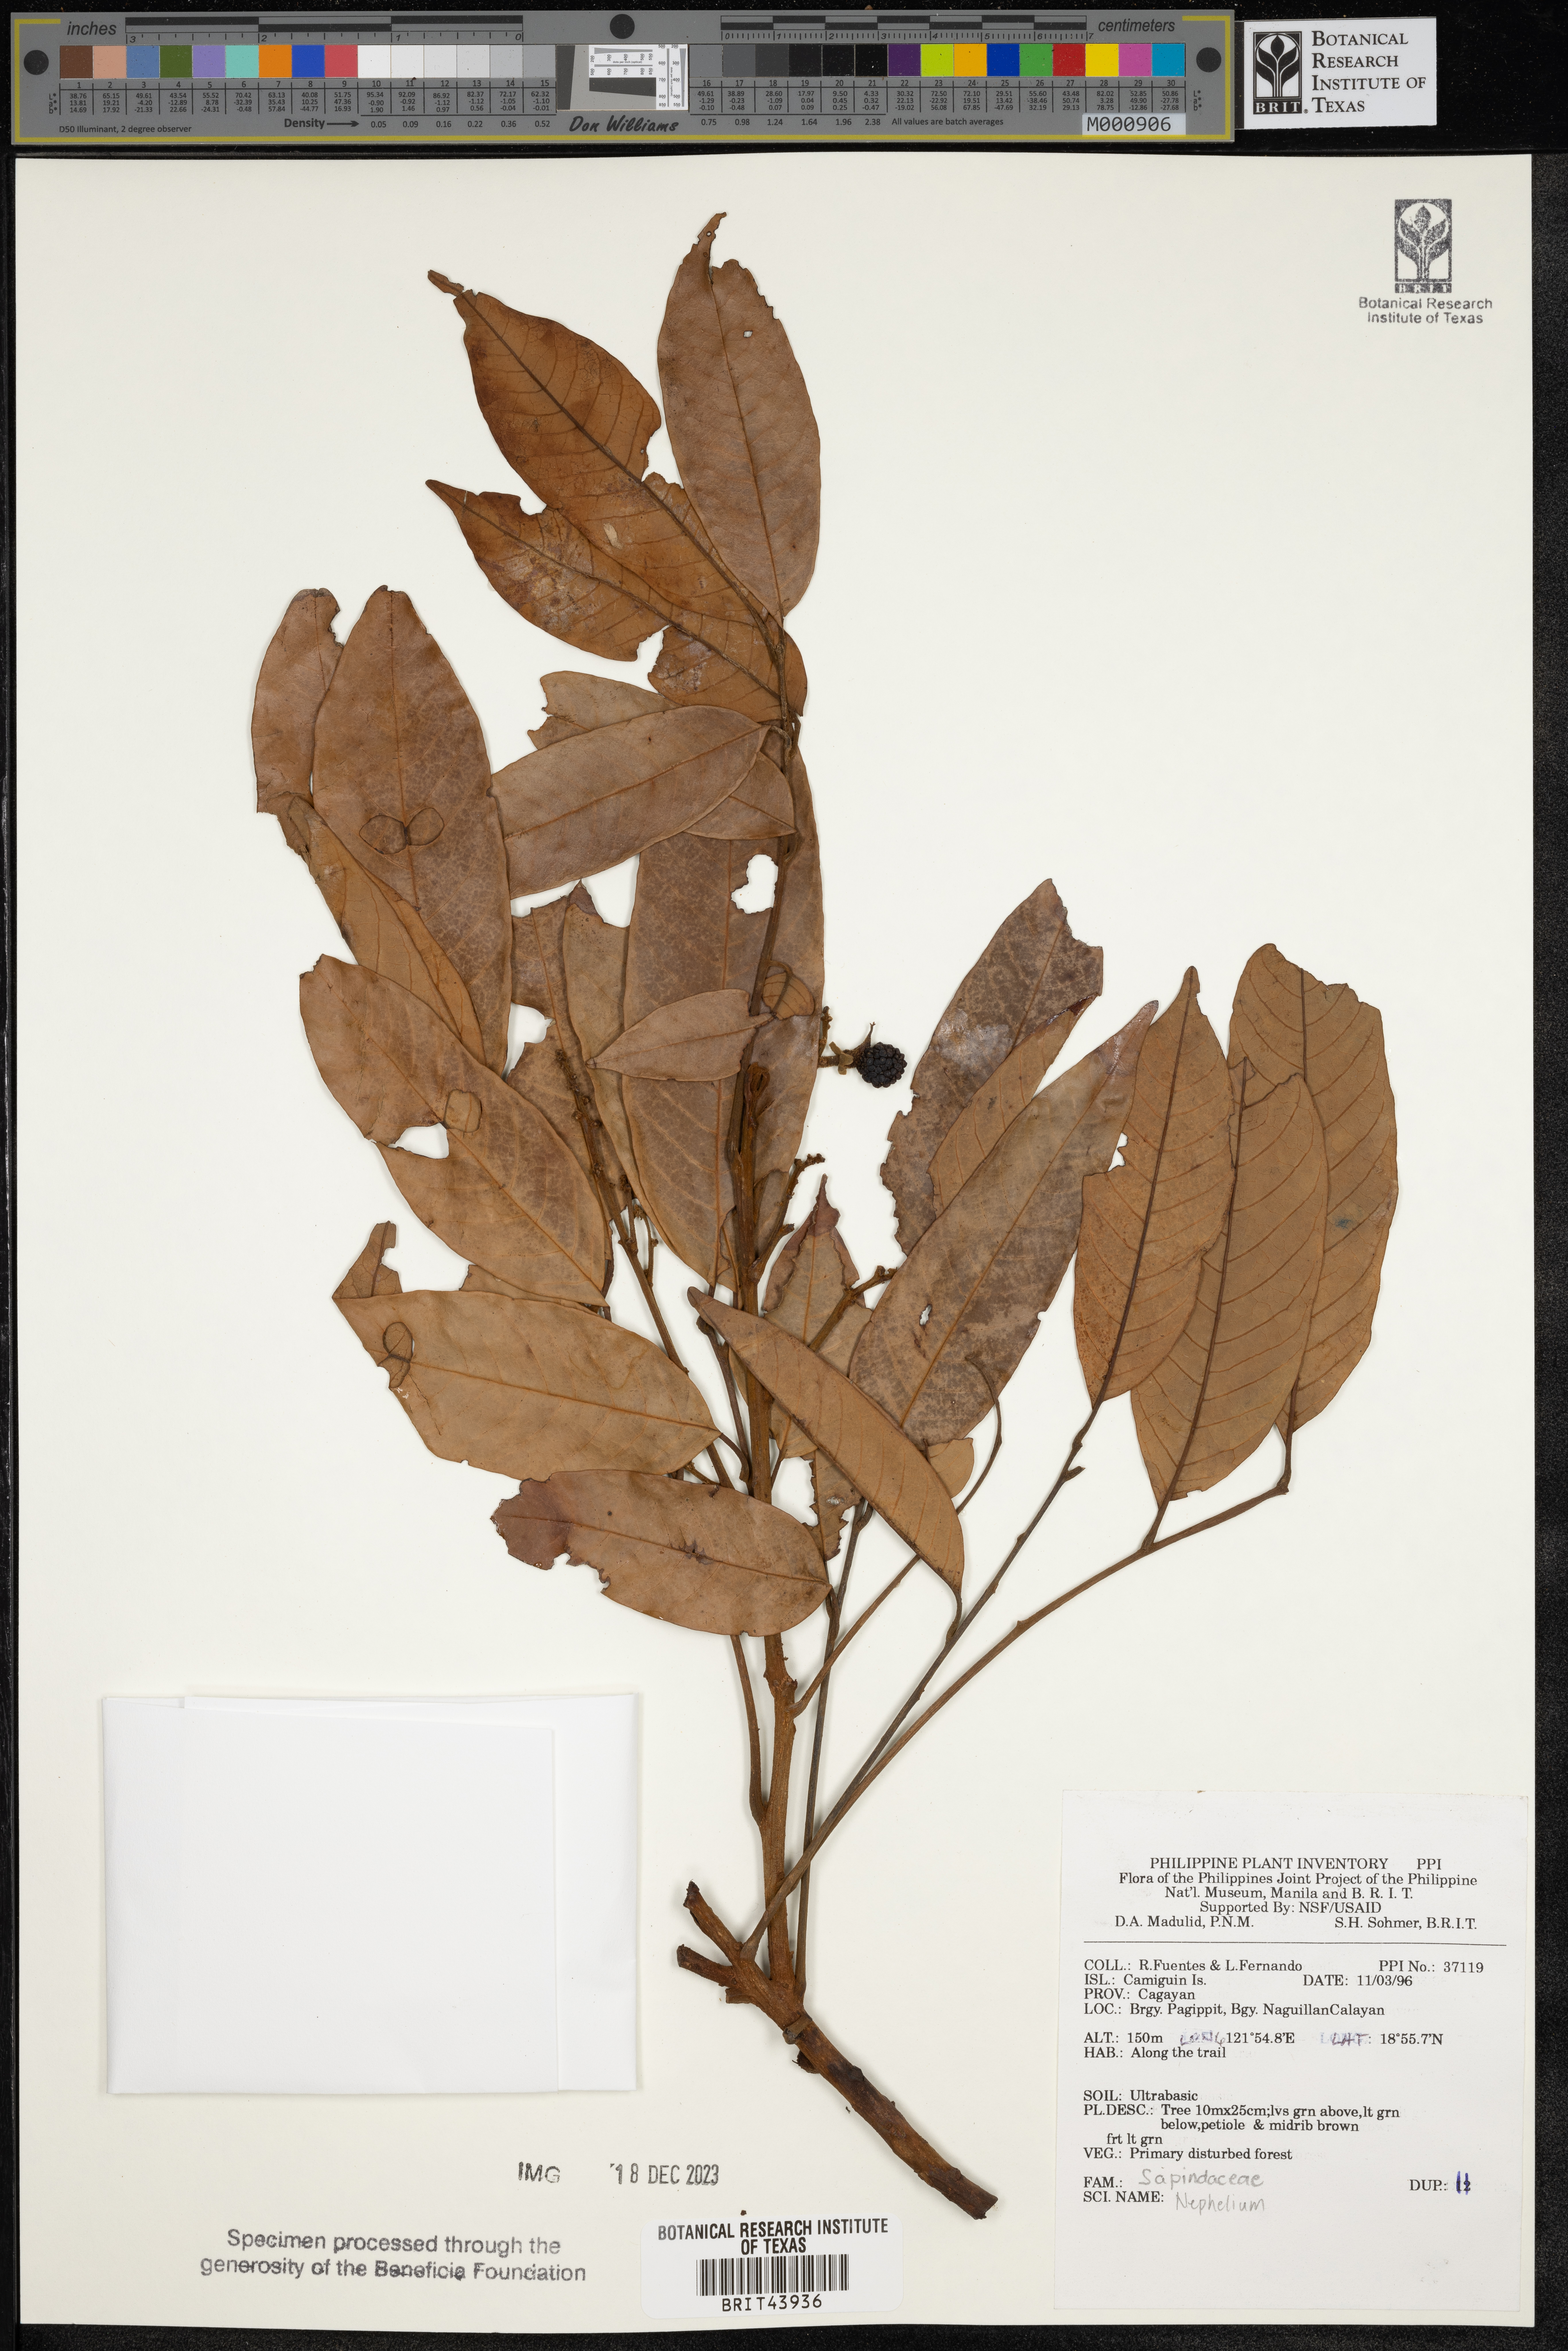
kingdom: Plantae
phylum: Tracheophyta
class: Magnoliopsida
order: Sapindales
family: Sapindaceae
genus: Nephelium
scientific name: Nephelium
